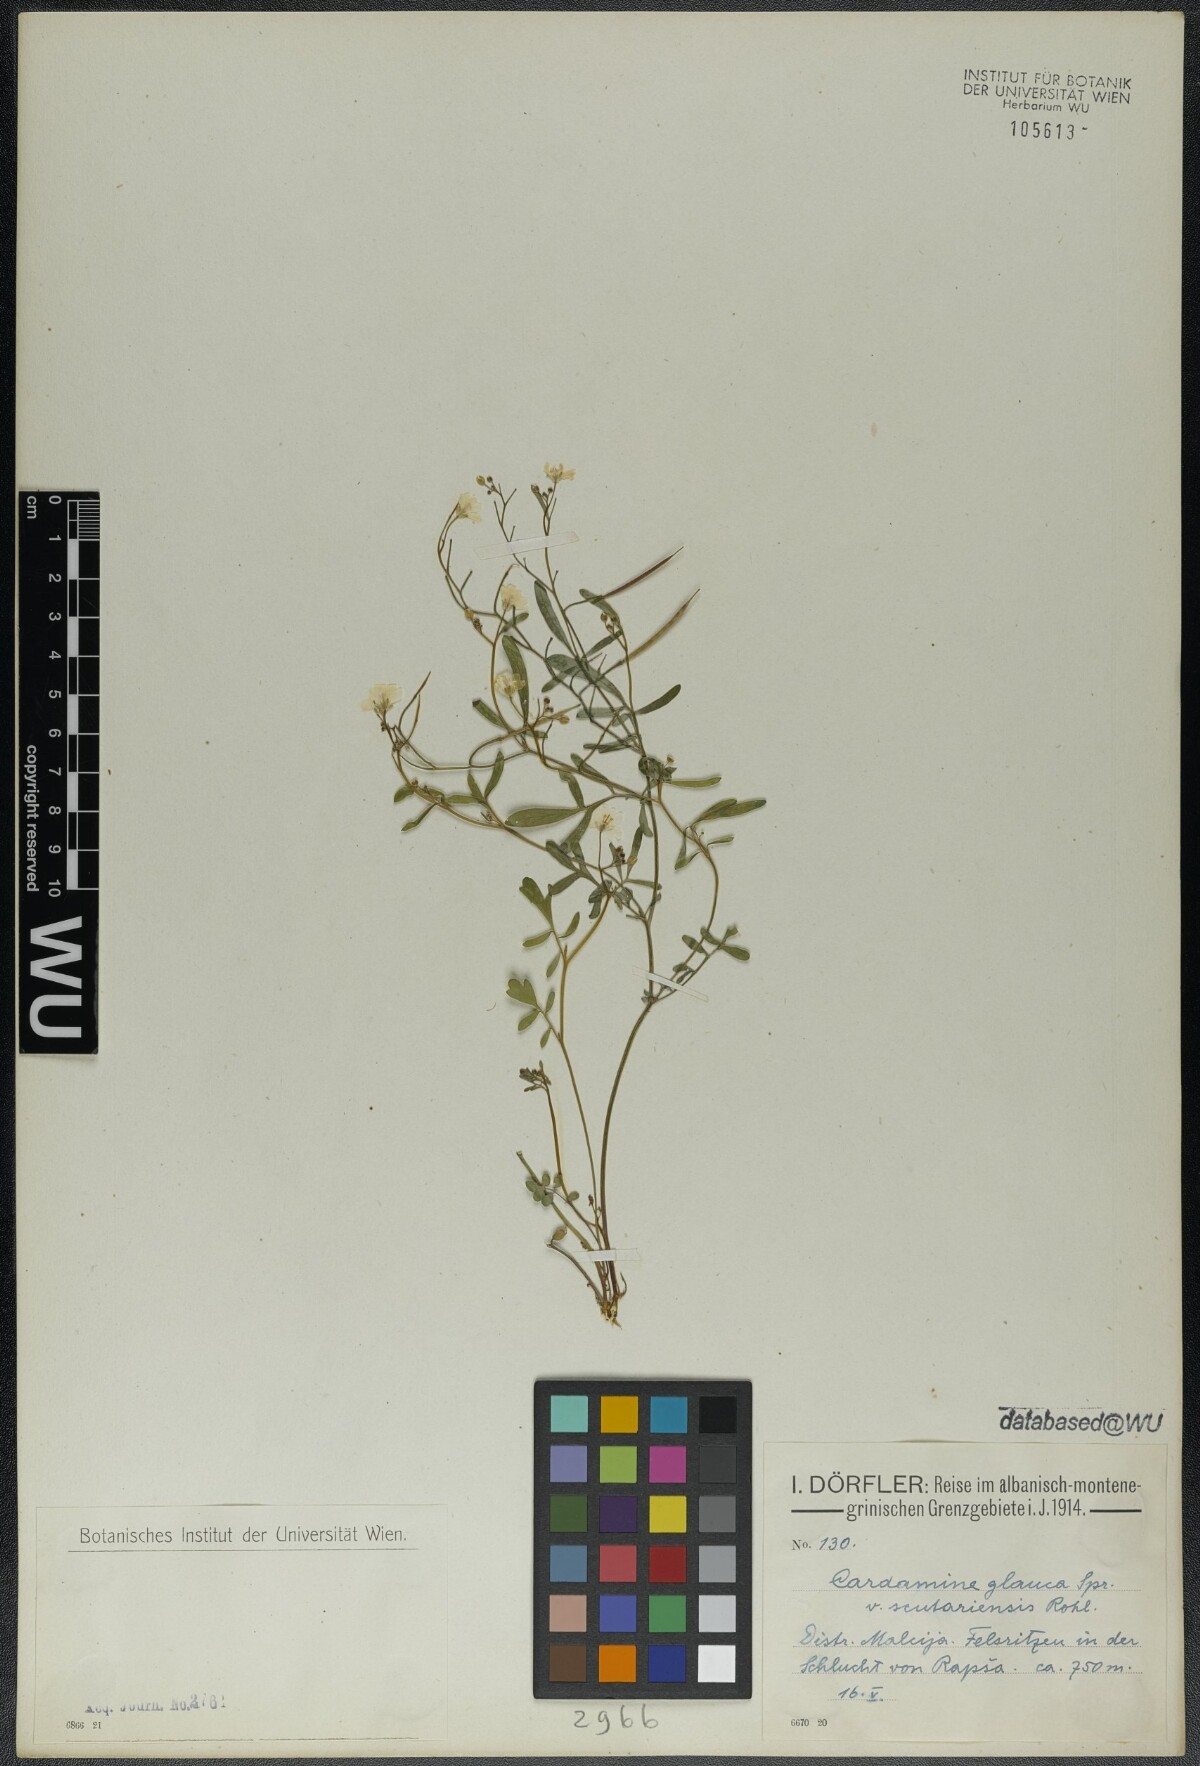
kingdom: Plantae
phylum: Tracheophyta
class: Magnoliopsida
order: Brassicales
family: Brassicaceae
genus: Cardamine
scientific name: Cardamine glauca
